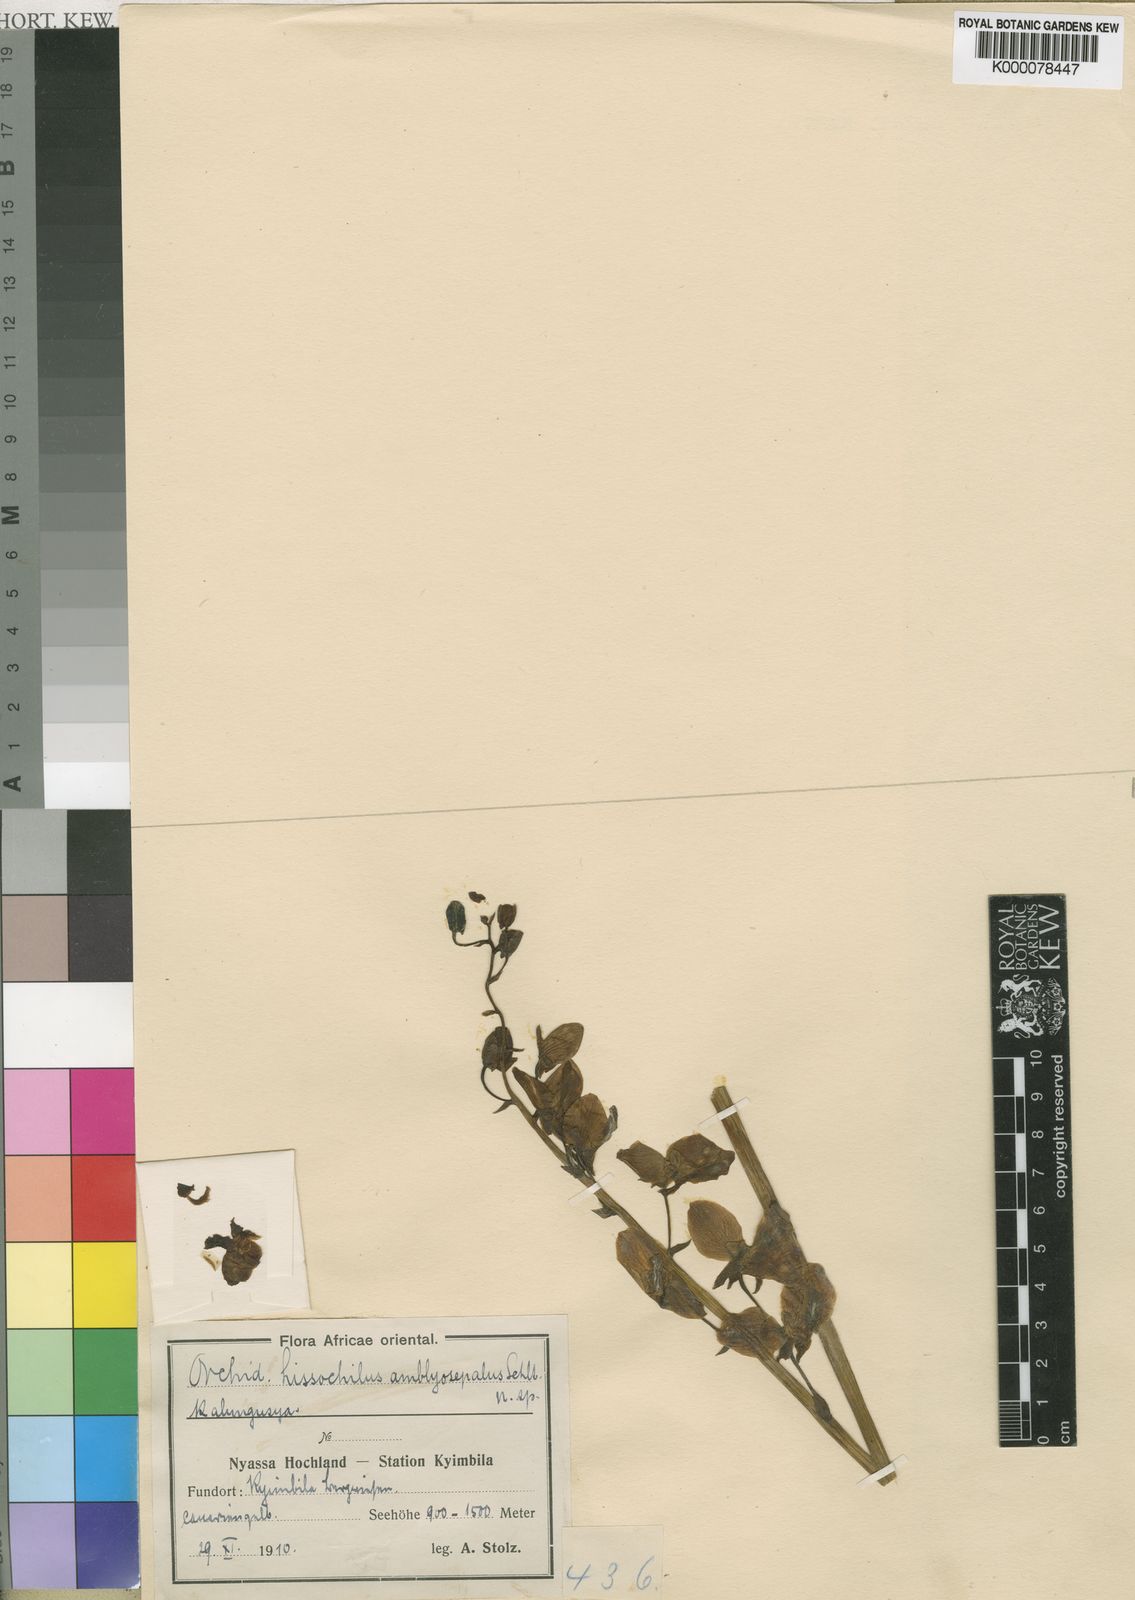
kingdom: Plantae
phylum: Tracheophyta
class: Liliopsida
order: Asparagales
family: Orchidaceae
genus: Eulophia
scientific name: Eulophia speciosa
